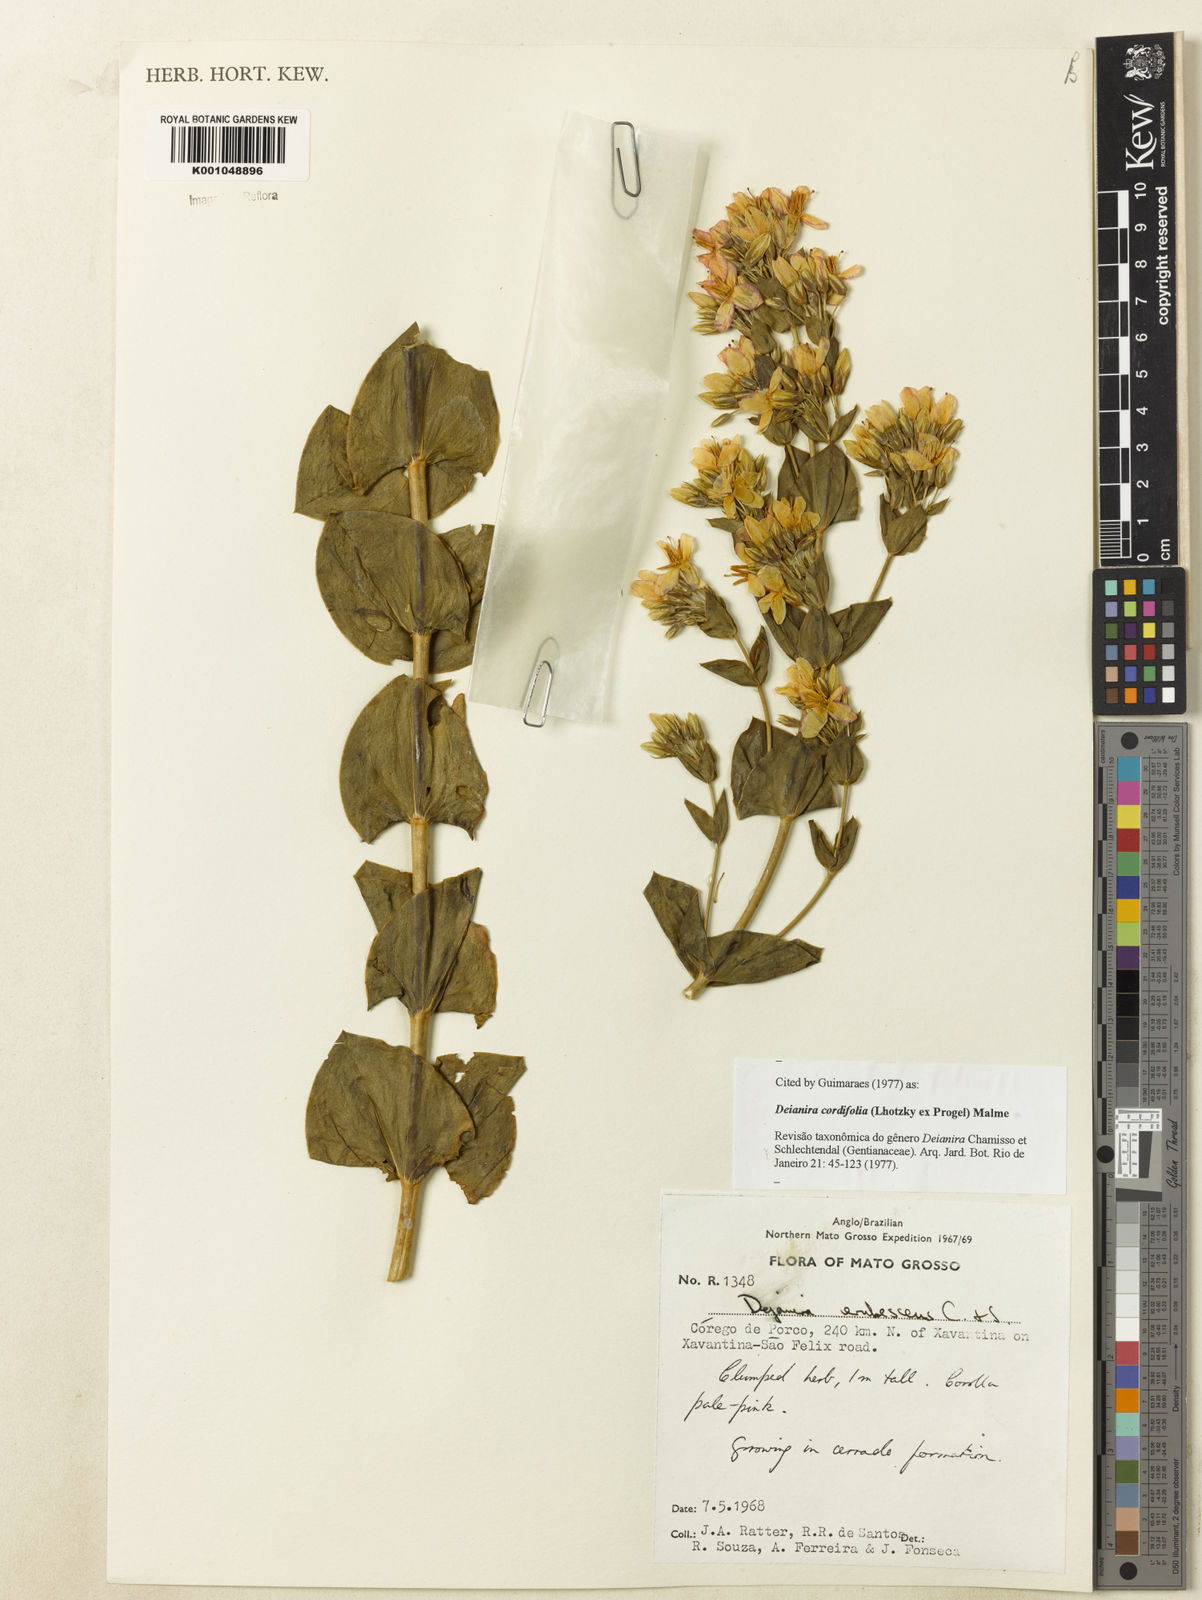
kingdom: Plantae
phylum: Tracheophyta
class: Magnoliopsida
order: Gentianales
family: Gentianaceae
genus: Deianira
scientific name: Deianira cordifolia
